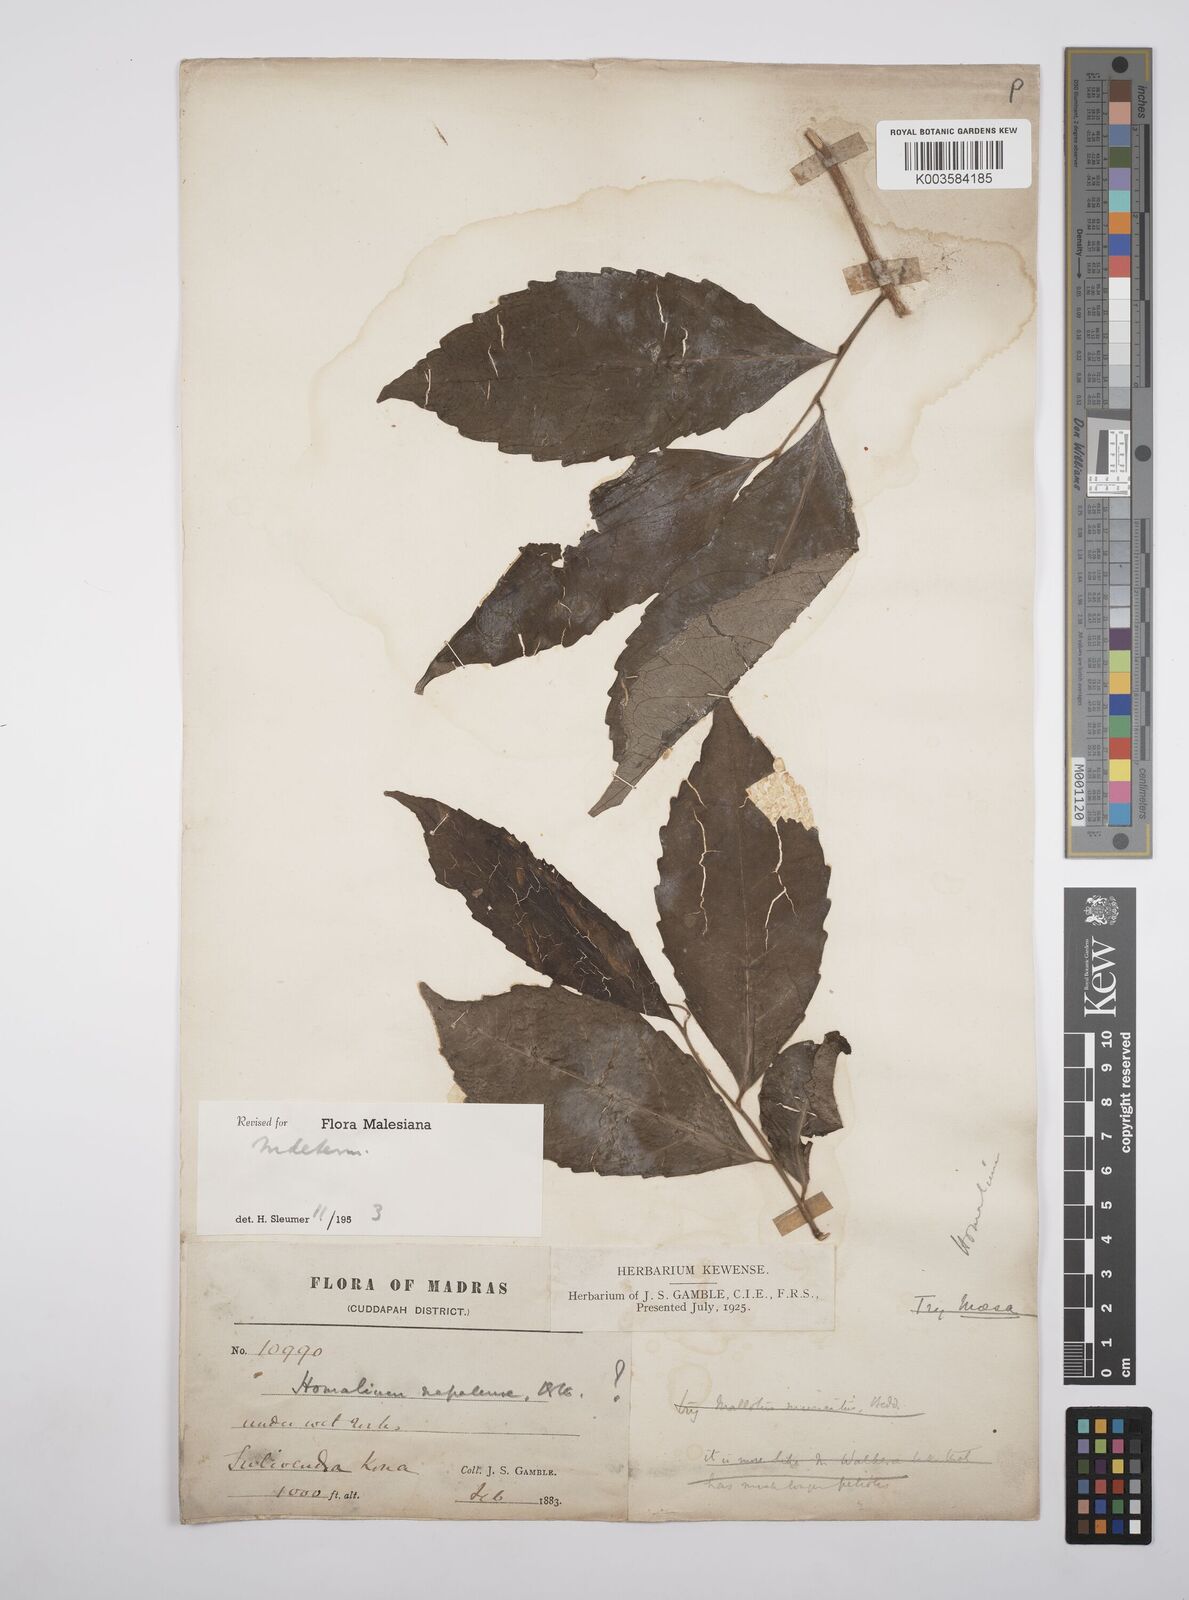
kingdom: Plantae
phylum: Tracheophyta
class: Magnoliopsida
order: Malpighiales
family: Salicaceae
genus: Homalium
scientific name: Homalium
